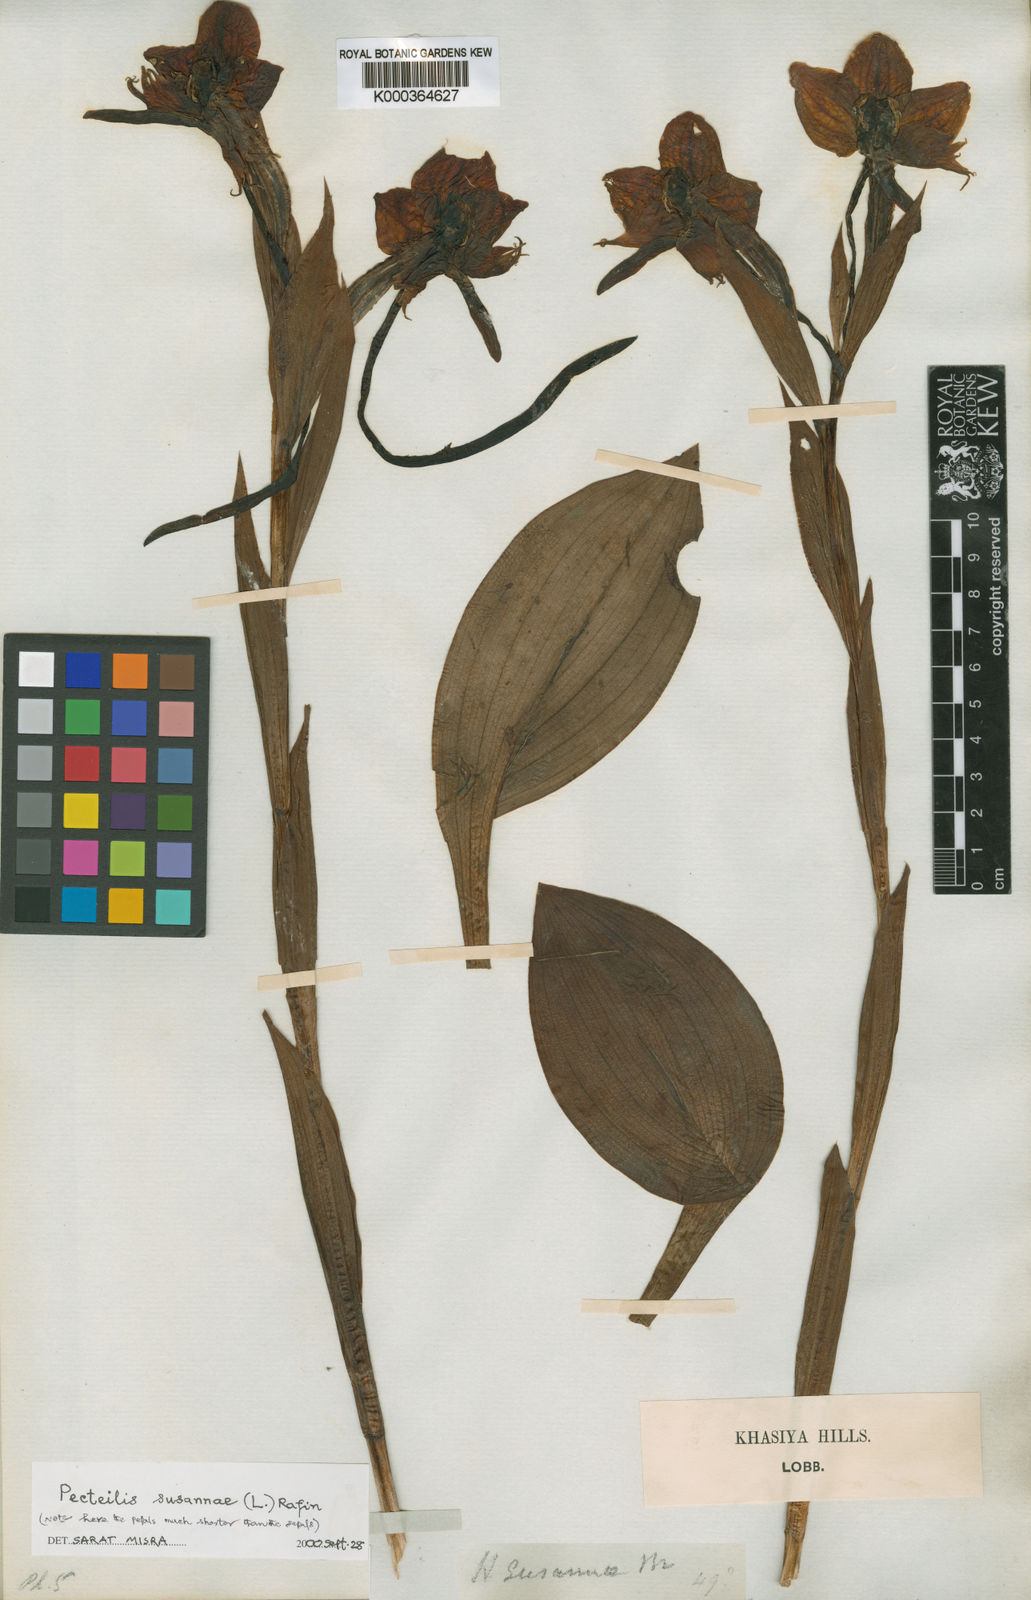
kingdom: Plantae
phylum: Tracheophyta
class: Liliopsida
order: Asparagales
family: Orchidaceae
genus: Pecteilis
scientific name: Pecteilis
